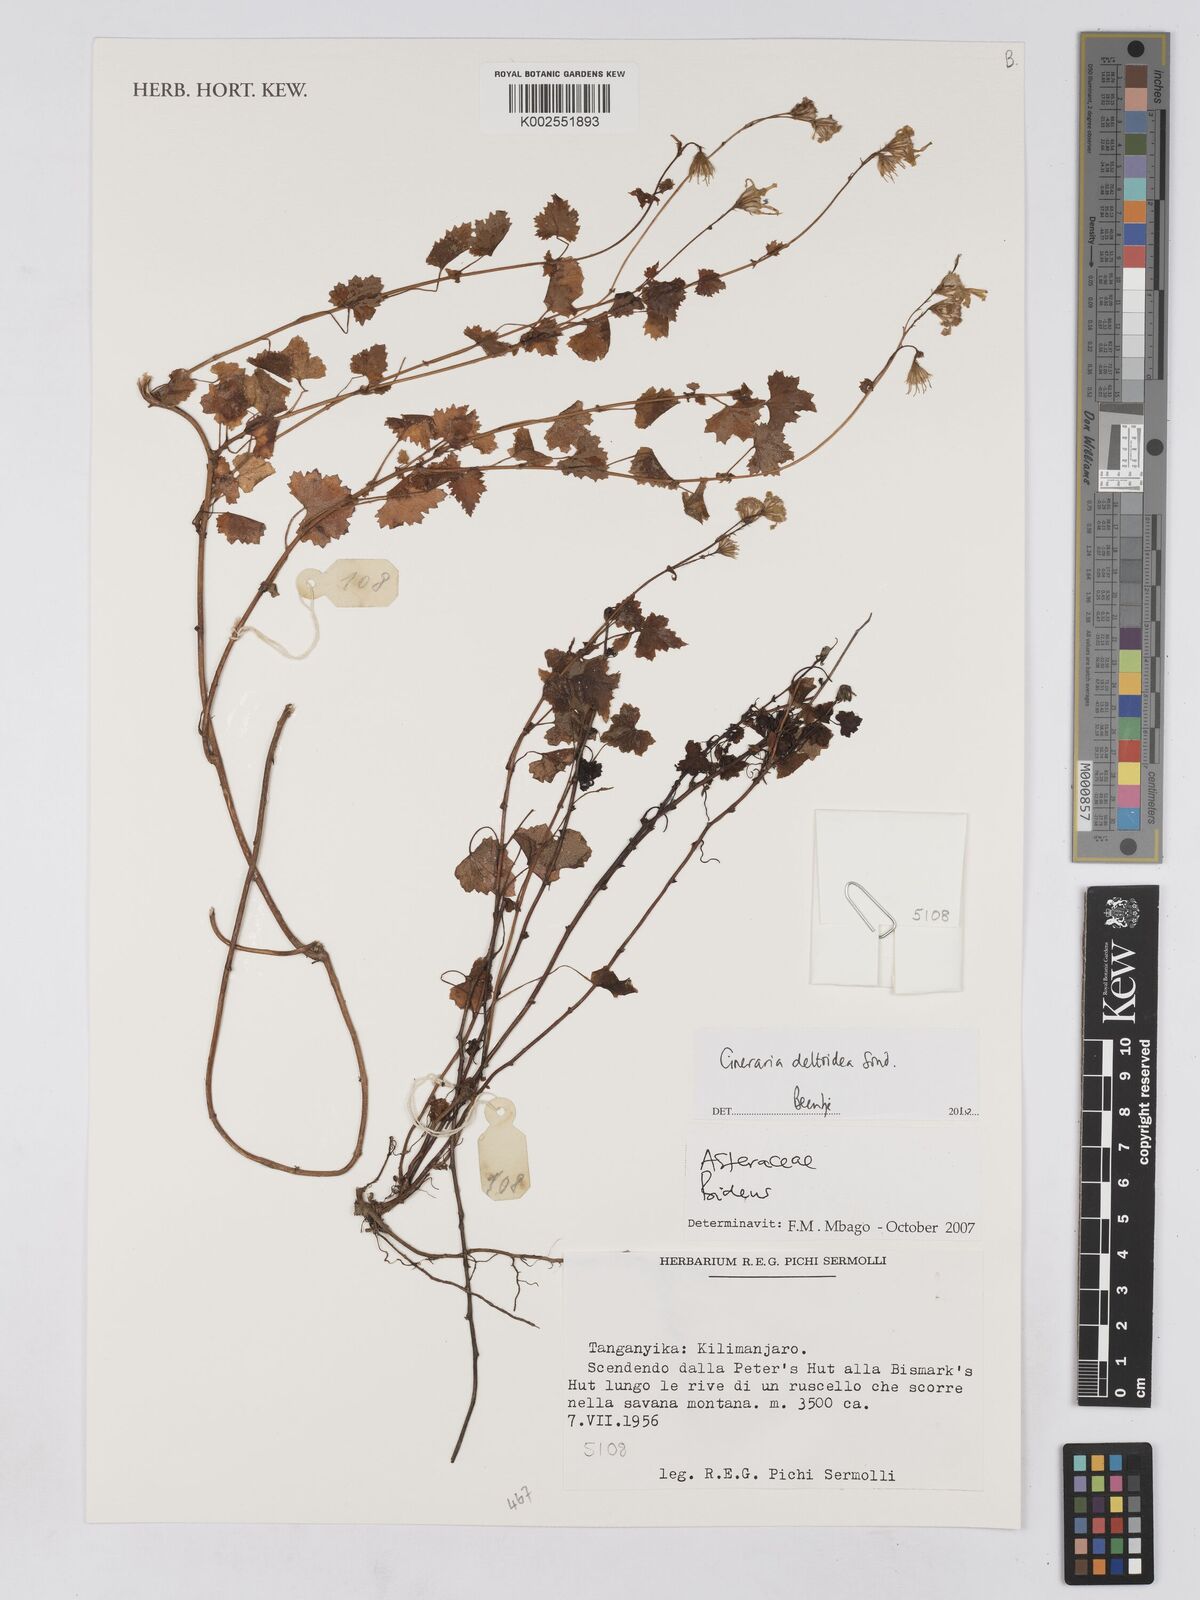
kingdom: Plantae
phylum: Tracheophyta
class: Magnoliopsida
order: Asterales
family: Asteraceae
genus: Cineraria
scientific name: Cineraria deltoidea
